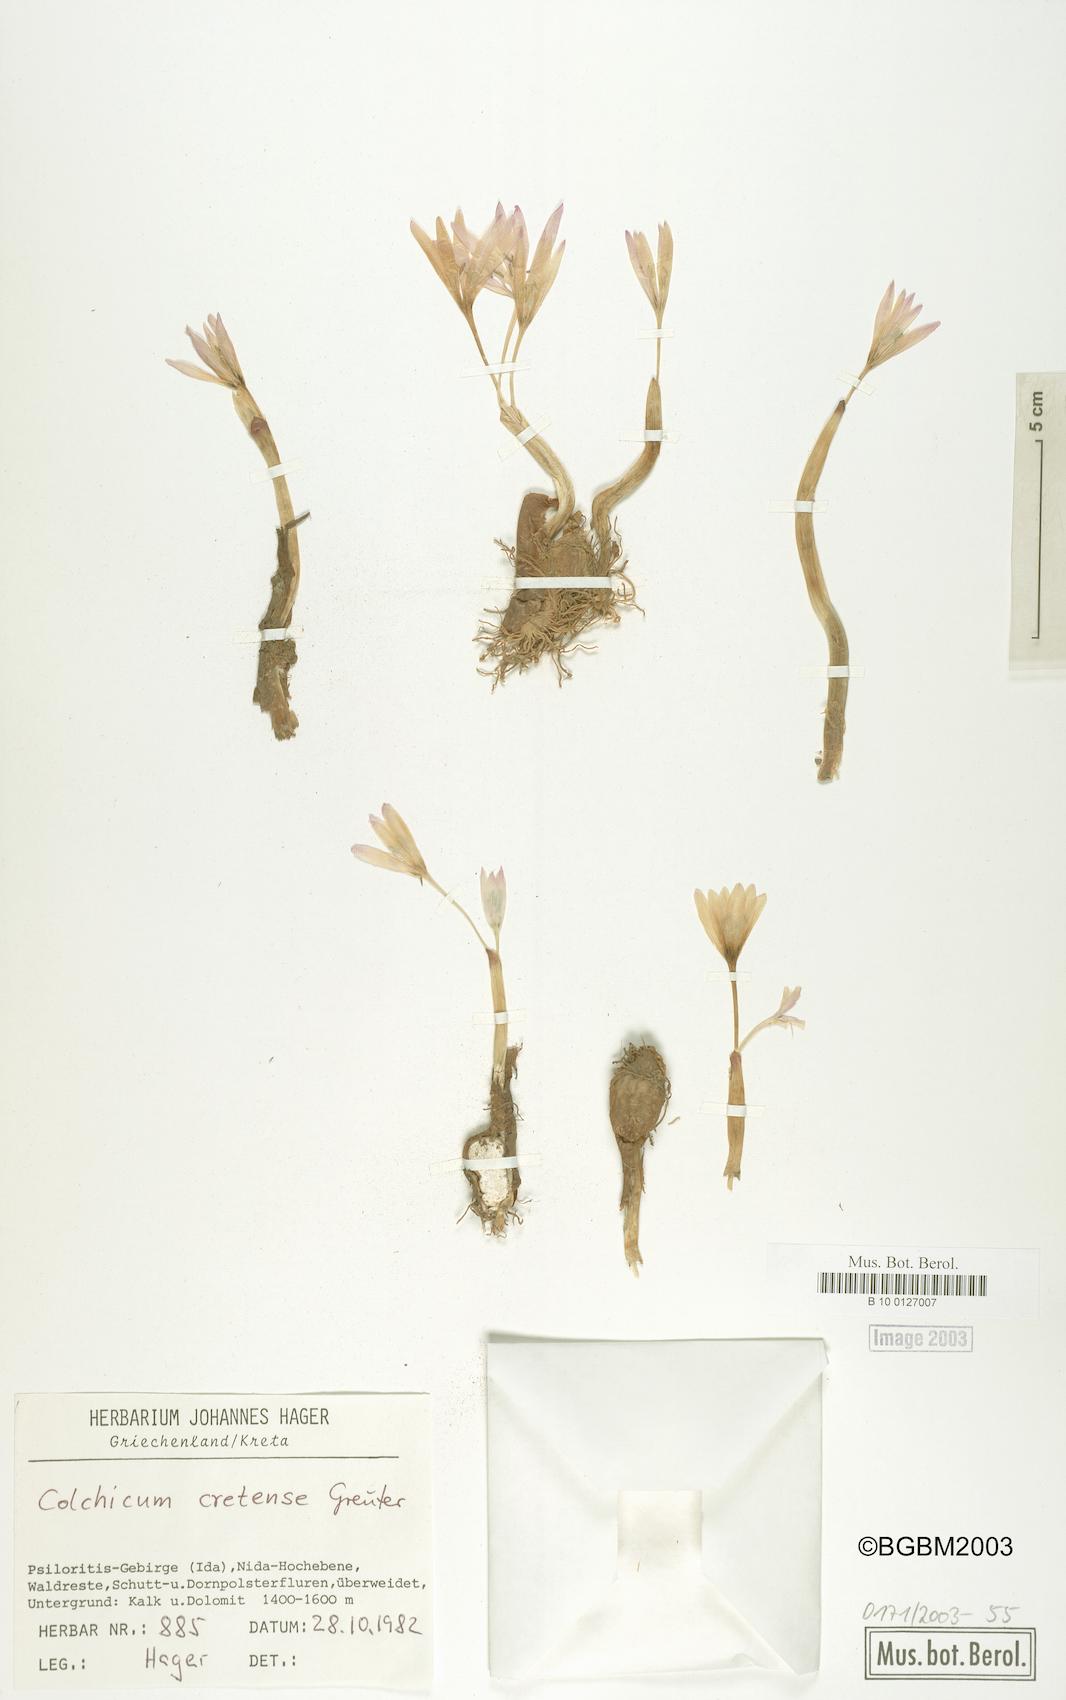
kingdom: Plantae
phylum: Tracheophyta
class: Liliopsida
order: Liliales
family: Colchicaceae
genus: Colchicum
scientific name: Colchicum cretense
